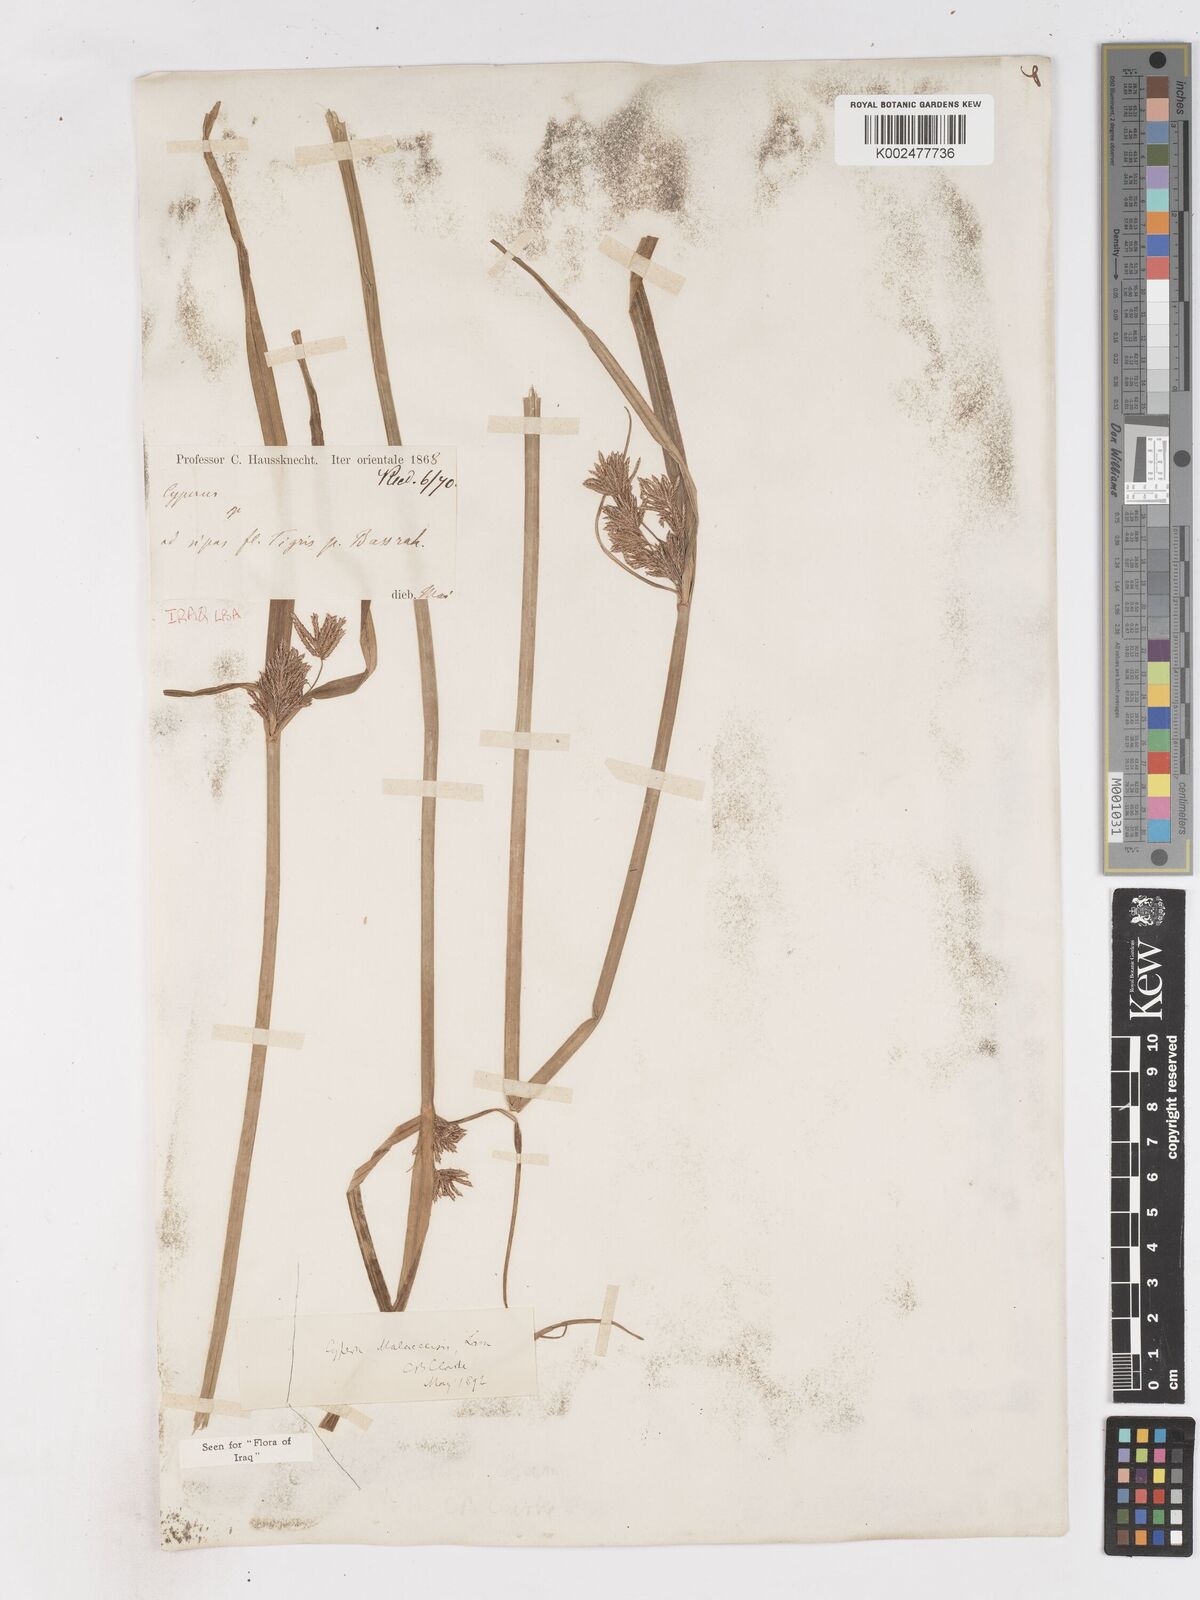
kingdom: Plantae
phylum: Tracheophyta
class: Liliopsida
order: Poales
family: Cyperaceae
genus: Cyperus
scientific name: Cyperus malaccensis
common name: Shichito matgrass
